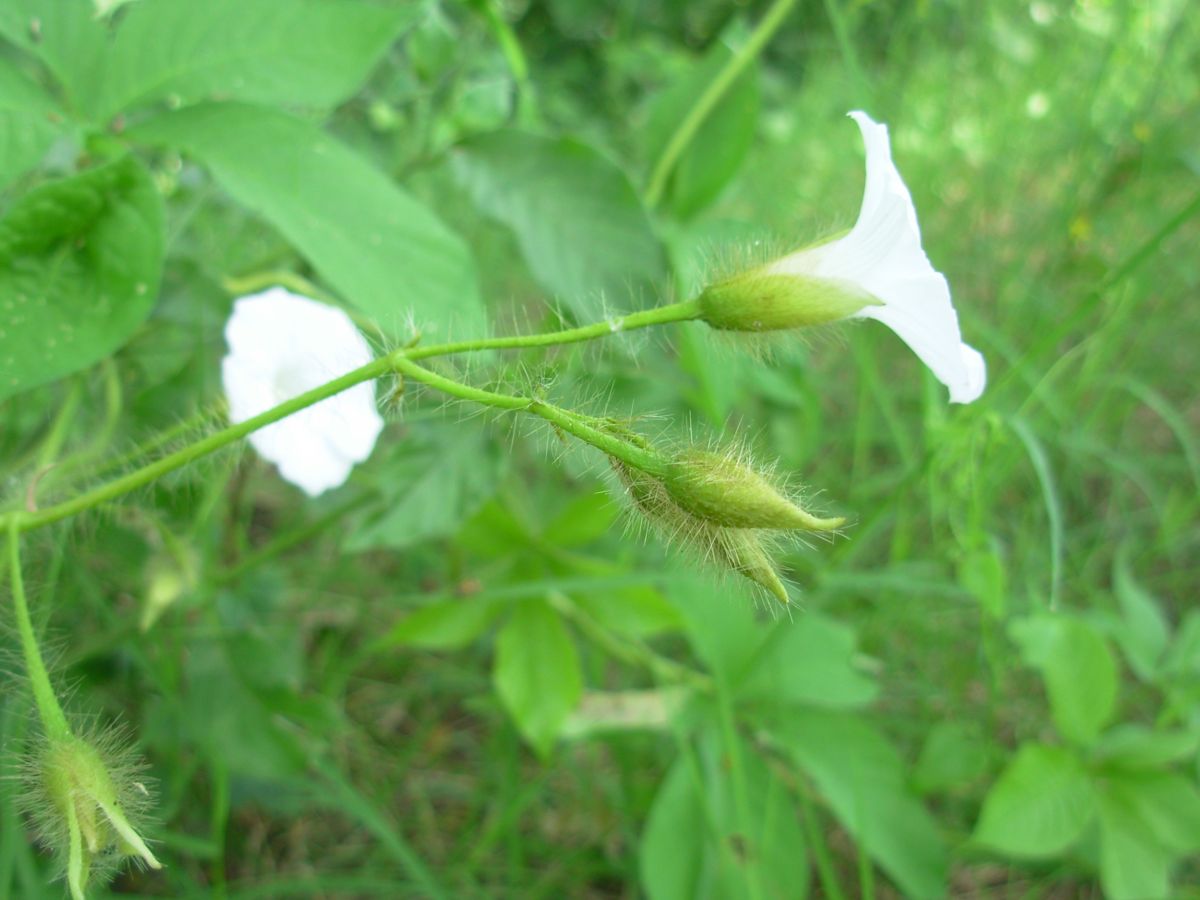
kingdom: Plantae
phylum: Tracheophyta
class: Magnoliopsida
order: Solanales
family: Convolvulaceae
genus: Distimake
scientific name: Distimake aegyptius
